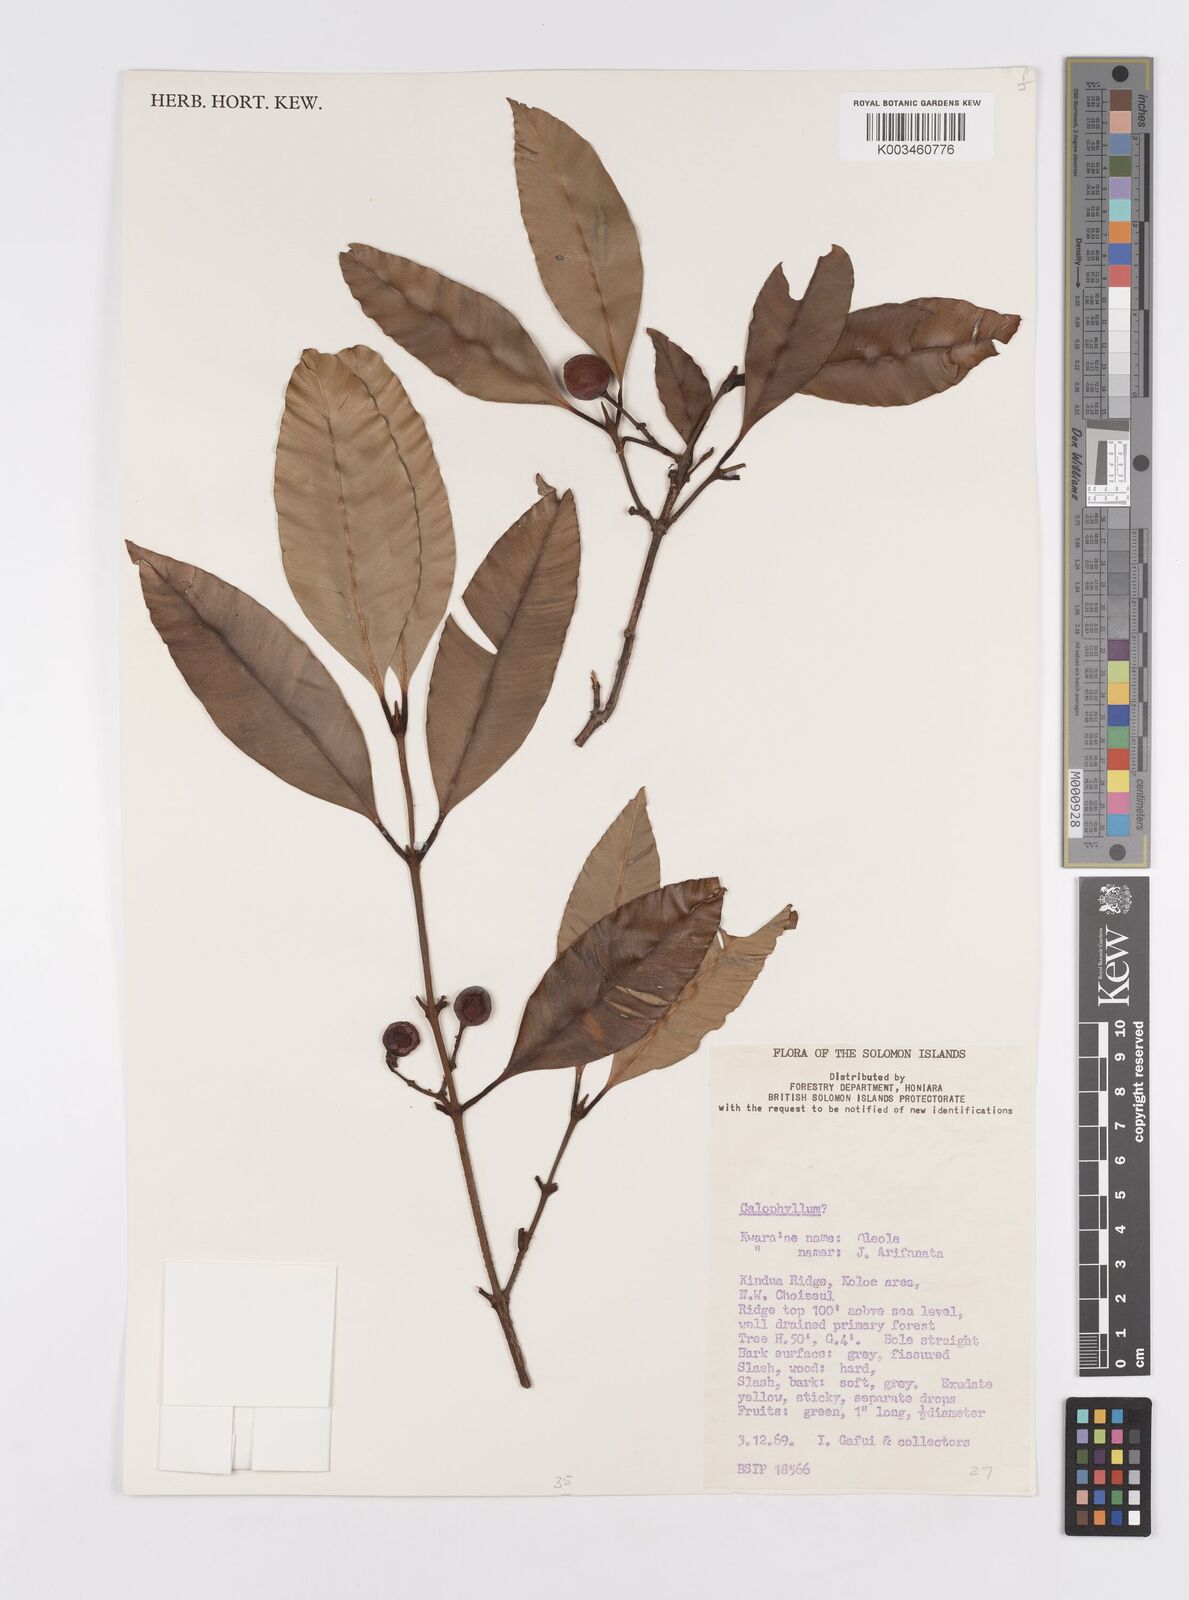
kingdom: Plantae
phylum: Tracheophyta
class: Magnoliopsida
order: Malpighiales
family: Calophyllaceae
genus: Calophyllum
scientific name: Calophyllum
